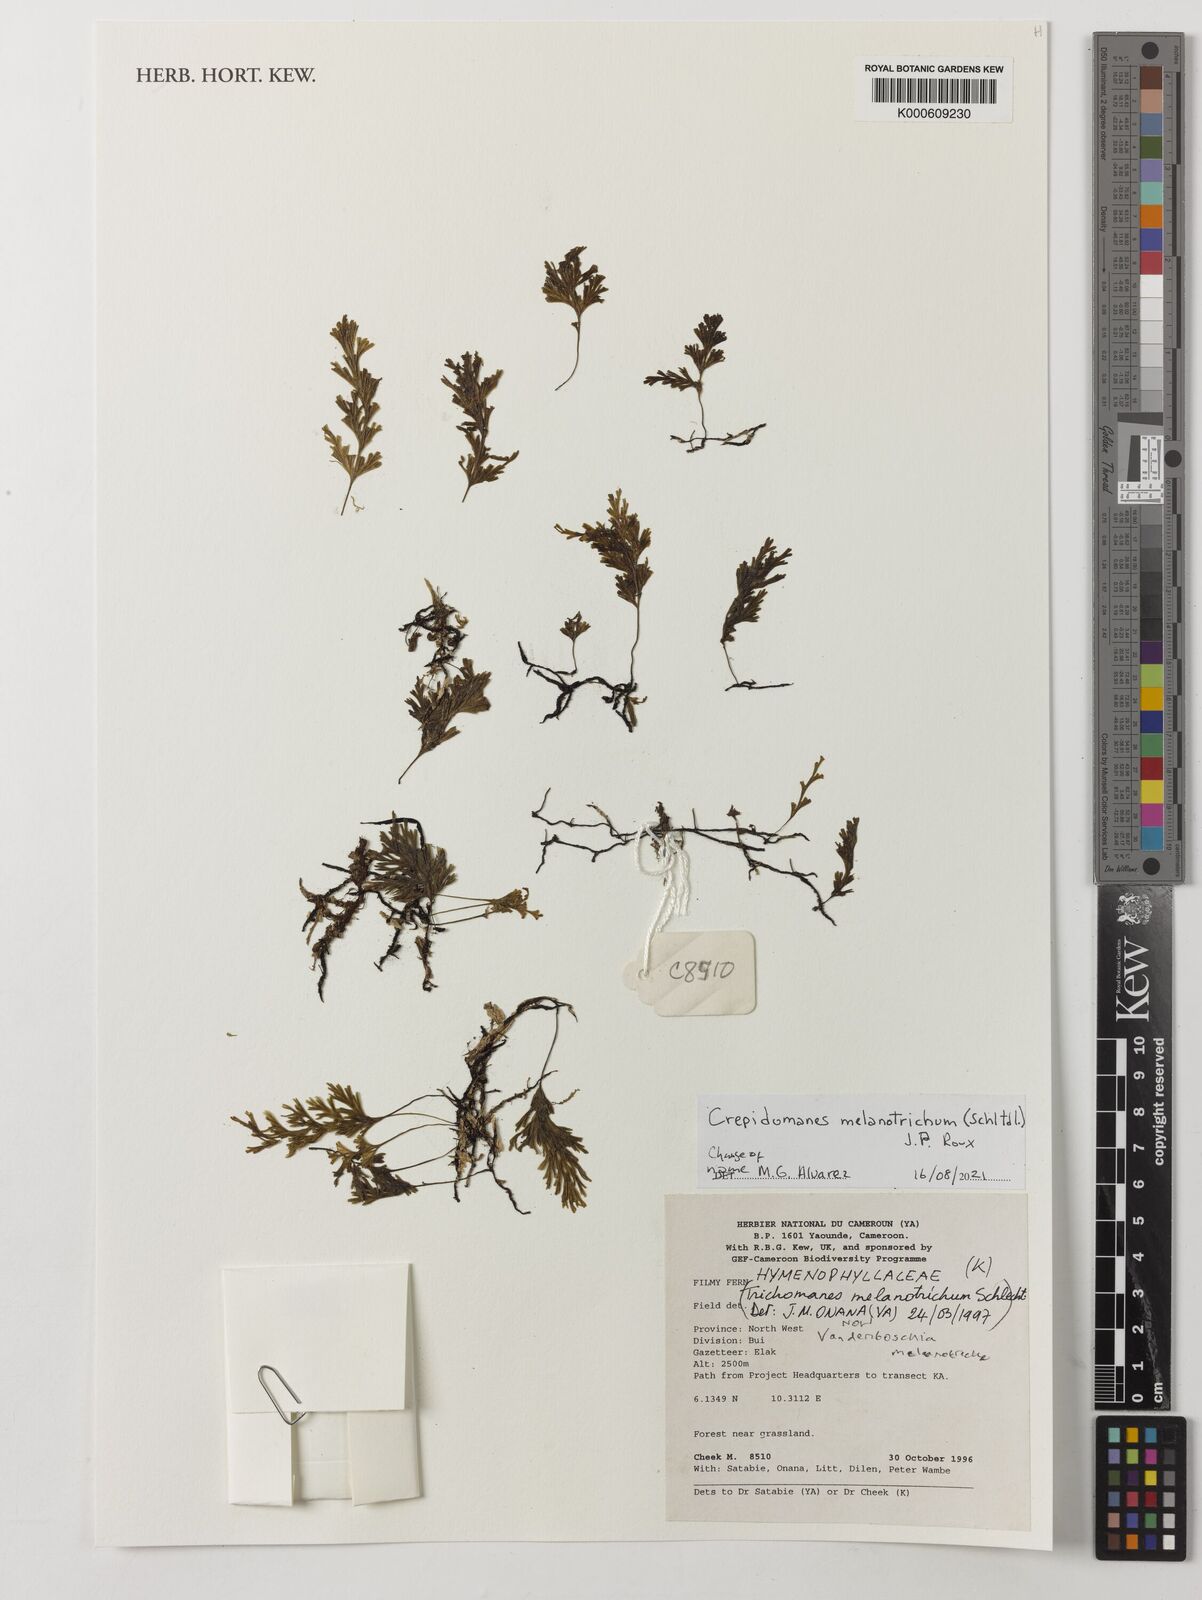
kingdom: Plantae
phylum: Tracheophyta
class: Polypodiopsida
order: Hymenophyllales
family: Hymenophyllaceae
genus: Crepidomanes
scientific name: Crepidomanes melanotrichum
